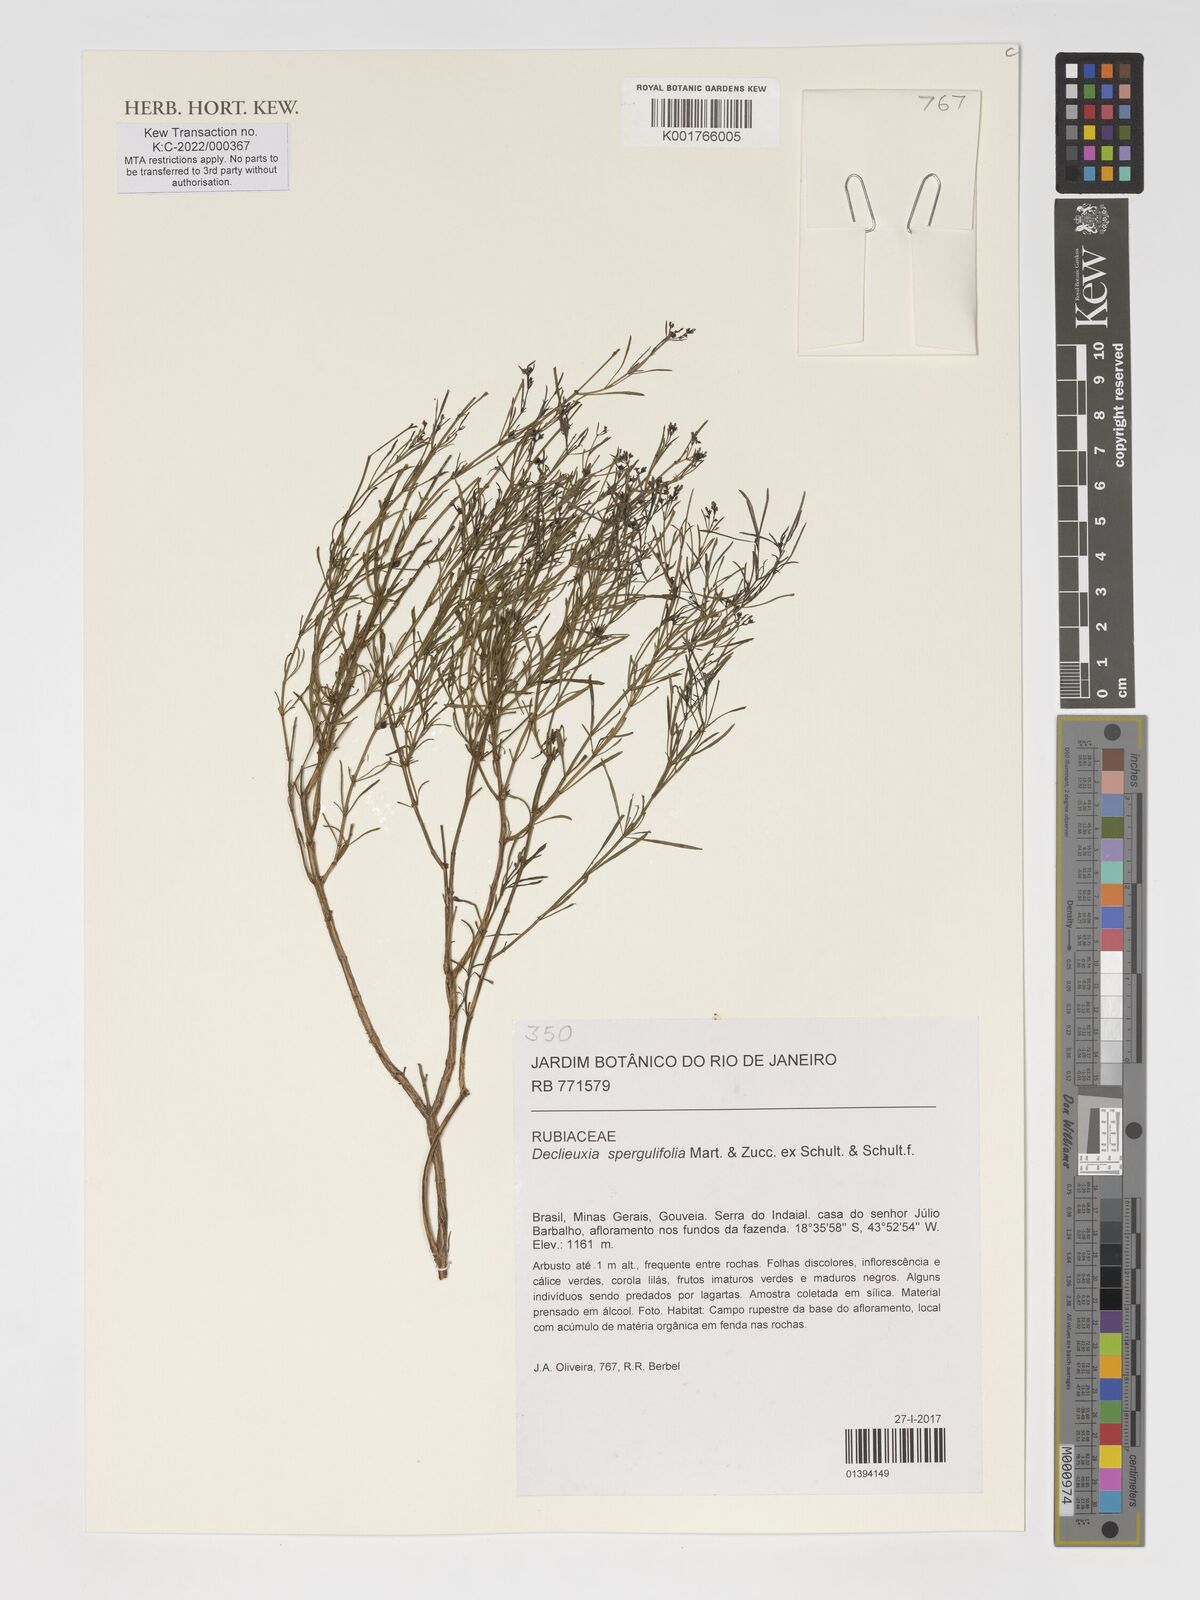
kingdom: Plantae
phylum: Tracheophyta
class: Magnoliopsida
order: Gentianales
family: Rubiaceae
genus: Declieuxia
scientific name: Declieuxia spergulifolia
